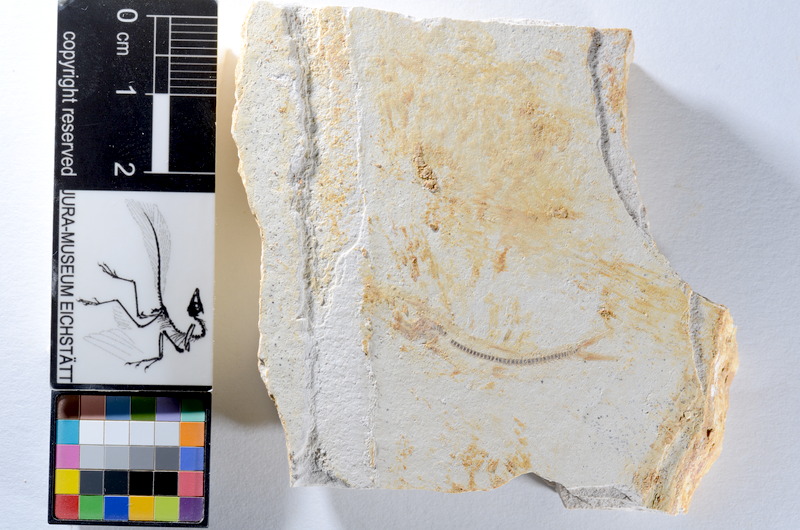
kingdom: Animalia
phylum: Chordata
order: Salmoniformes
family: Orthogonikleithridae
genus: Orthogonikleithrus
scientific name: Orthogonikleithrus hoelli
